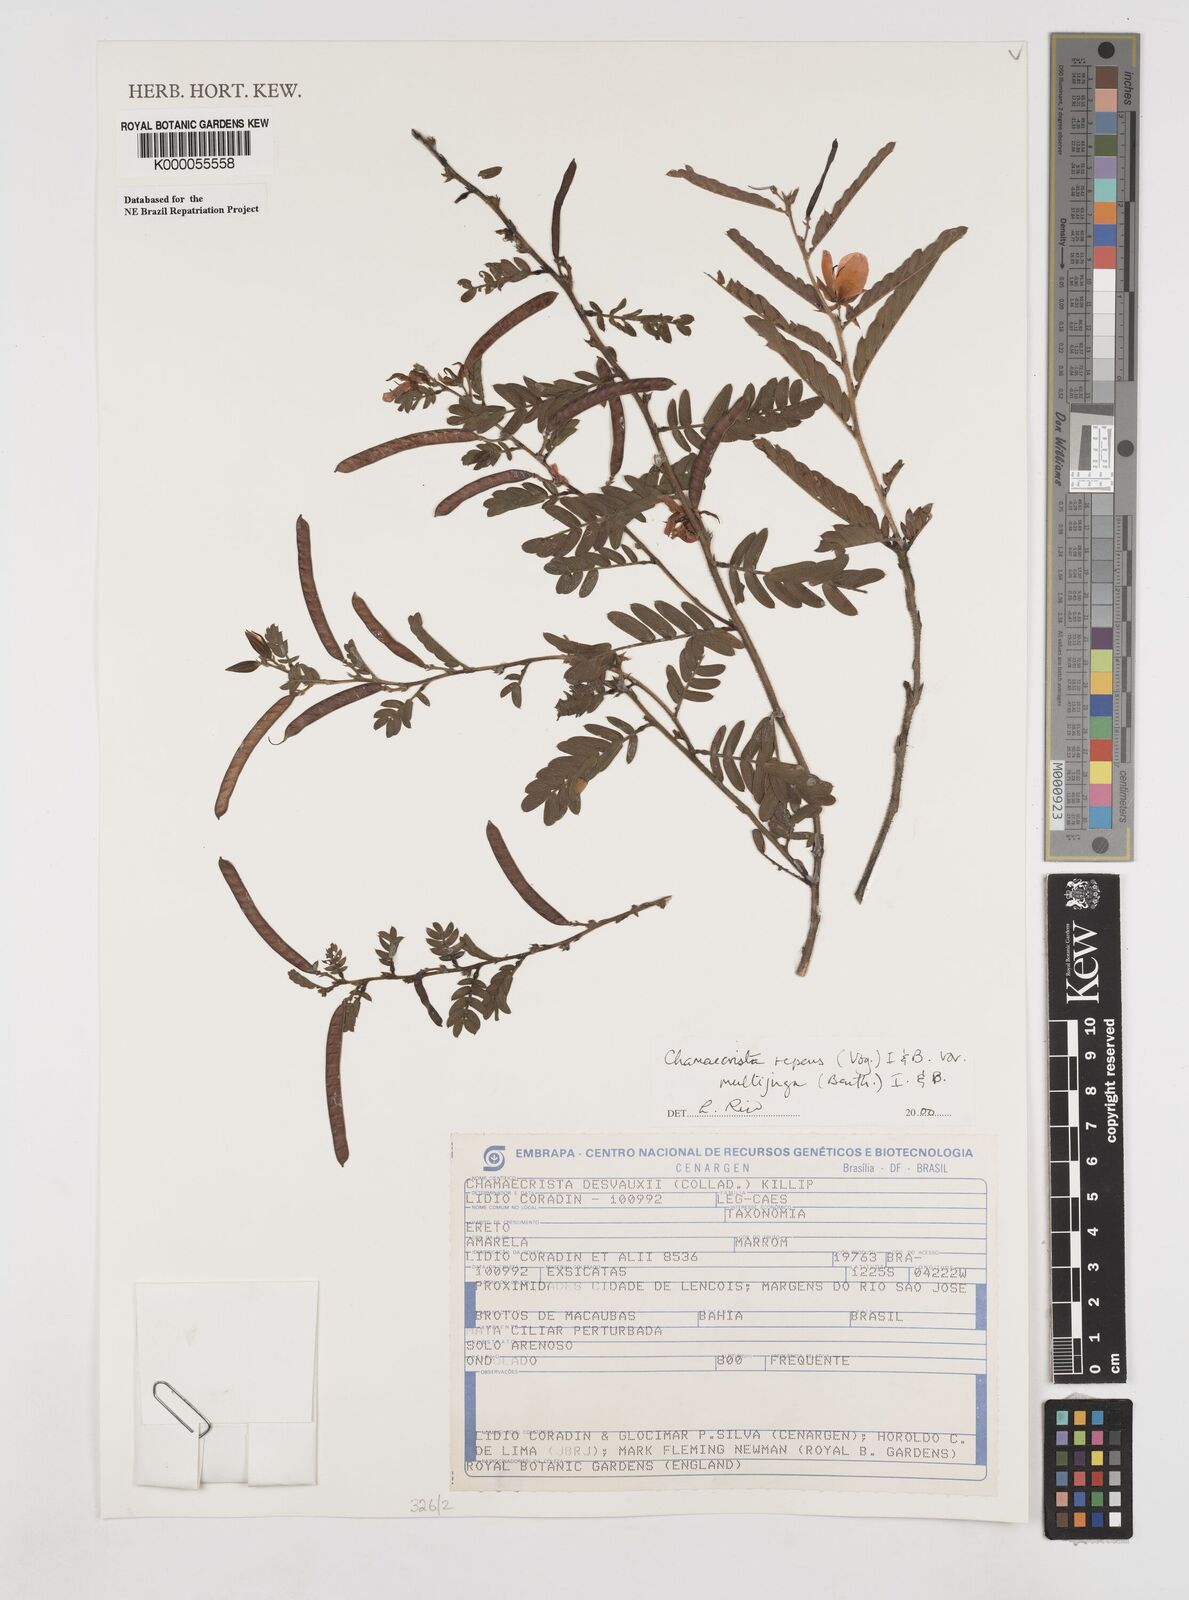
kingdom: Plantae
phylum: Tracheophyta
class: Magnoliopsida
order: Fabales
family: Fabaceae
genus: Chamaecrista
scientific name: Chamaecrista repens
